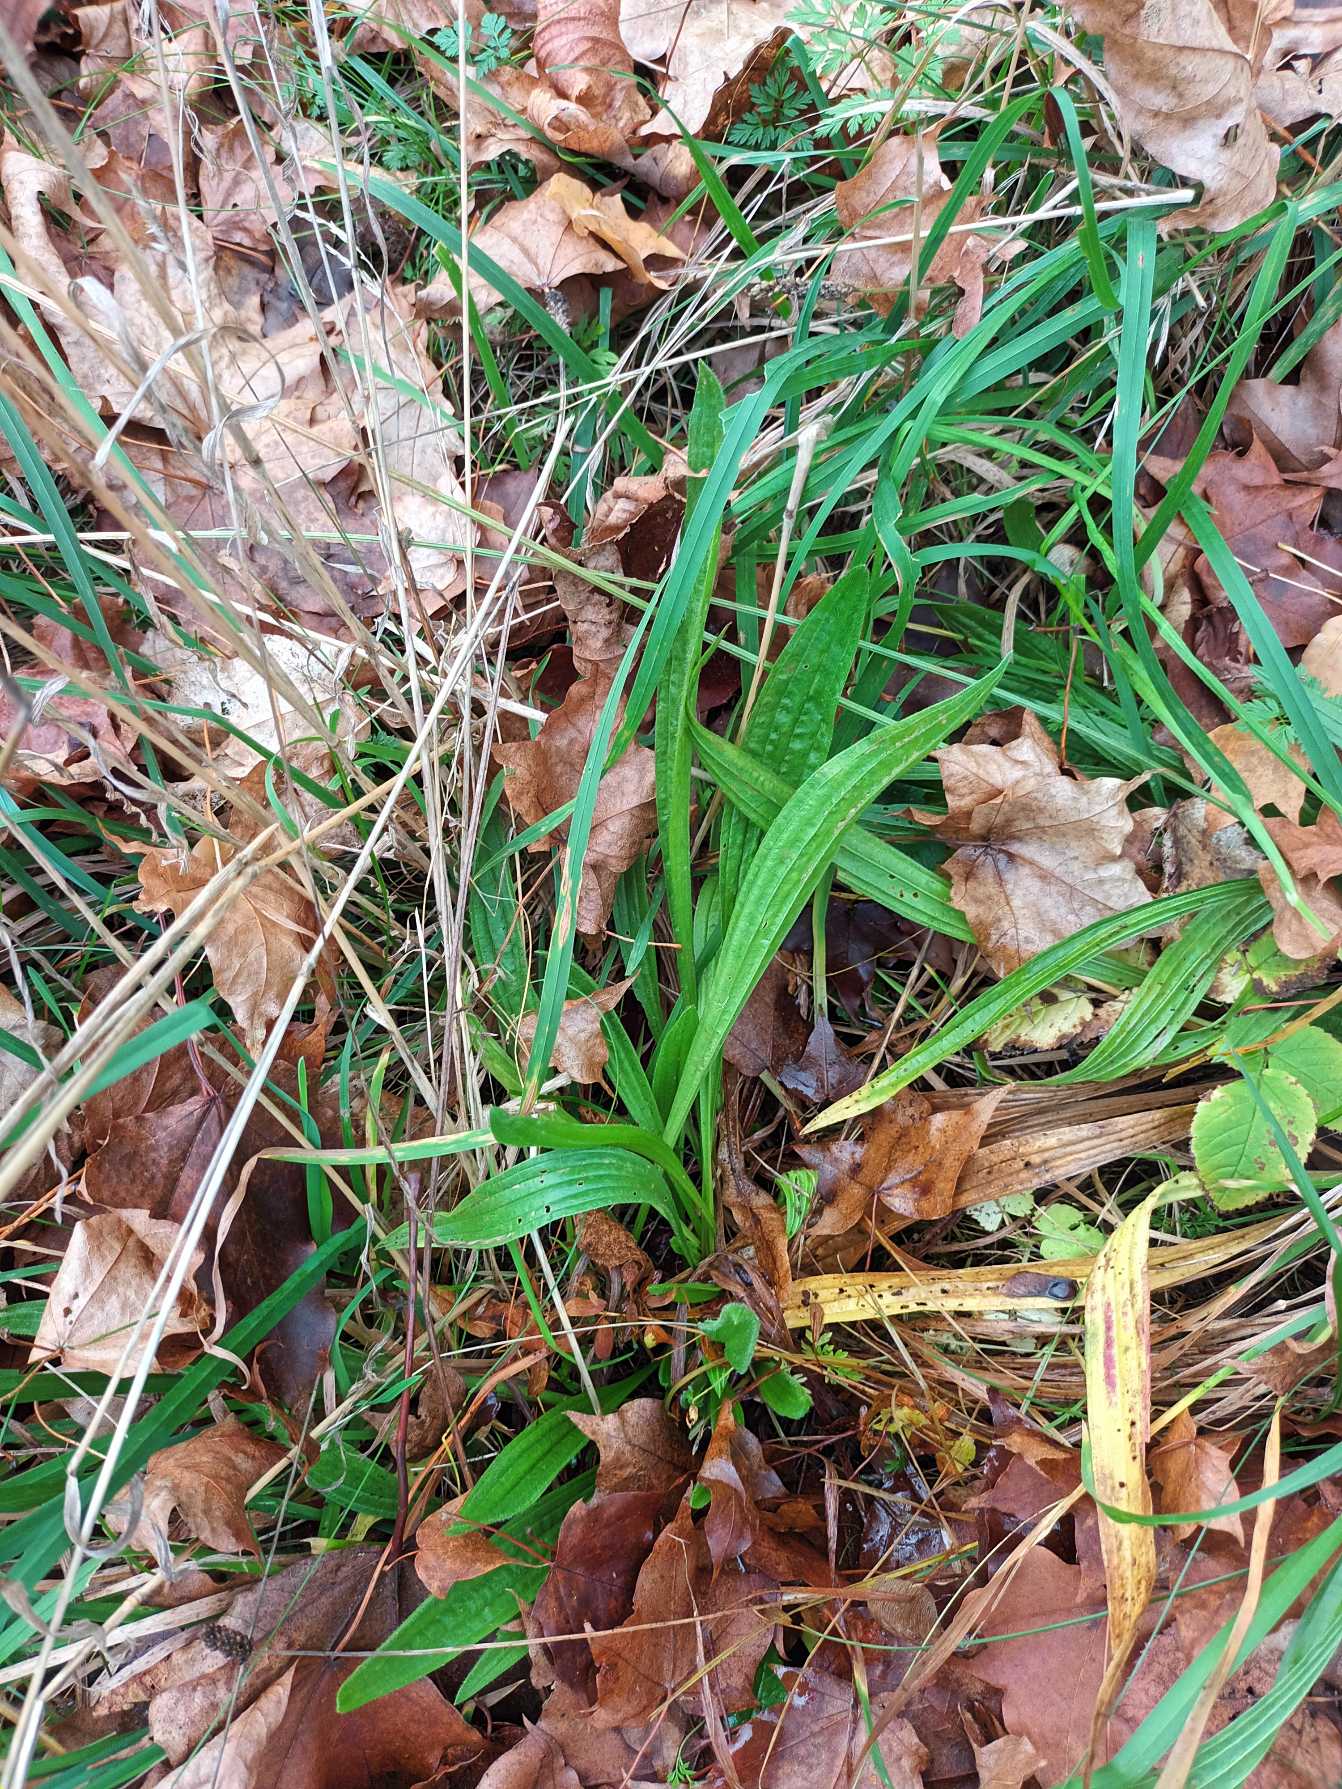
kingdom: Plantae
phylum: Tracheophyta
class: Magnoliopsida
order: Lamiales
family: Plantaginaceae
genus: Plantago
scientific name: Plantago lanceolata
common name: Lancet-vejbred
